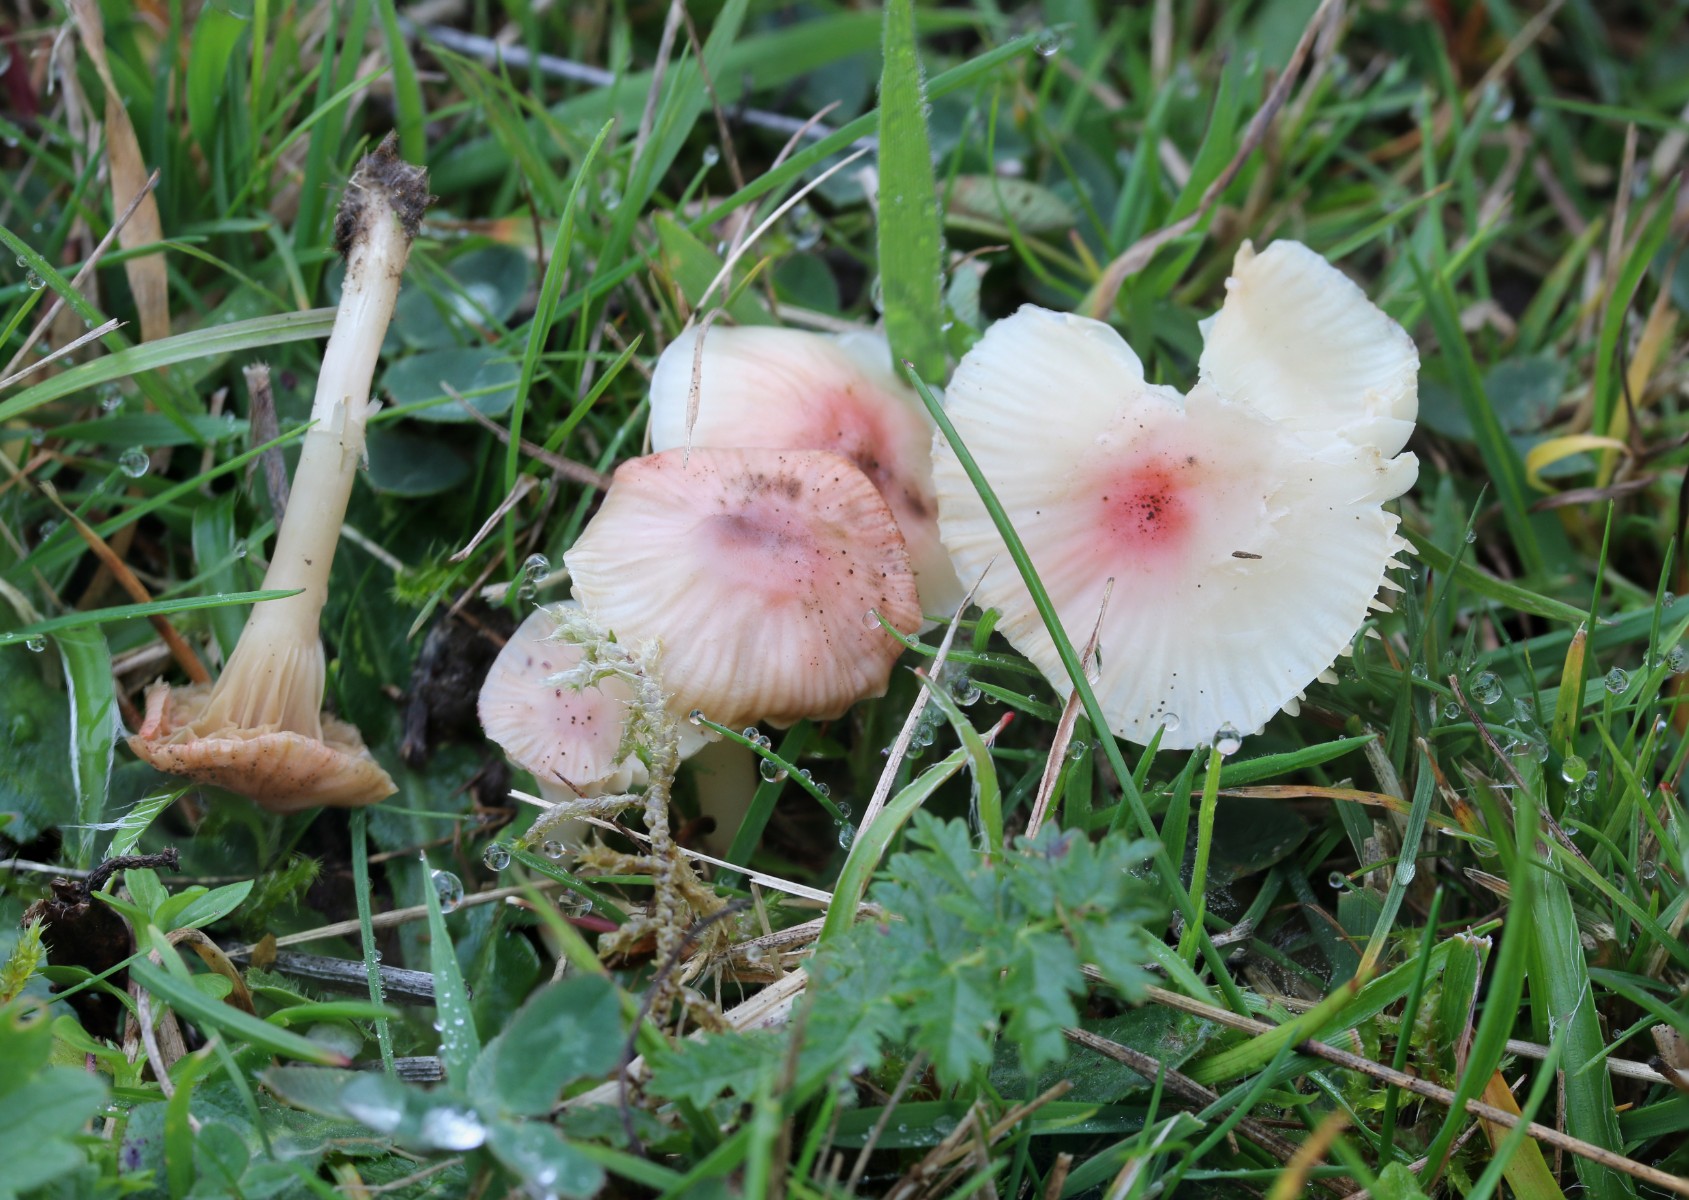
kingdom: Fungi
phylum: Basidiomycota
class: Agaricomycetes
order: Agaricales
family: Hygrophoraceae
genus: Cuphophyllus
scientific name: Cuphophyllus virgineus
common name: snehvid vokshat
